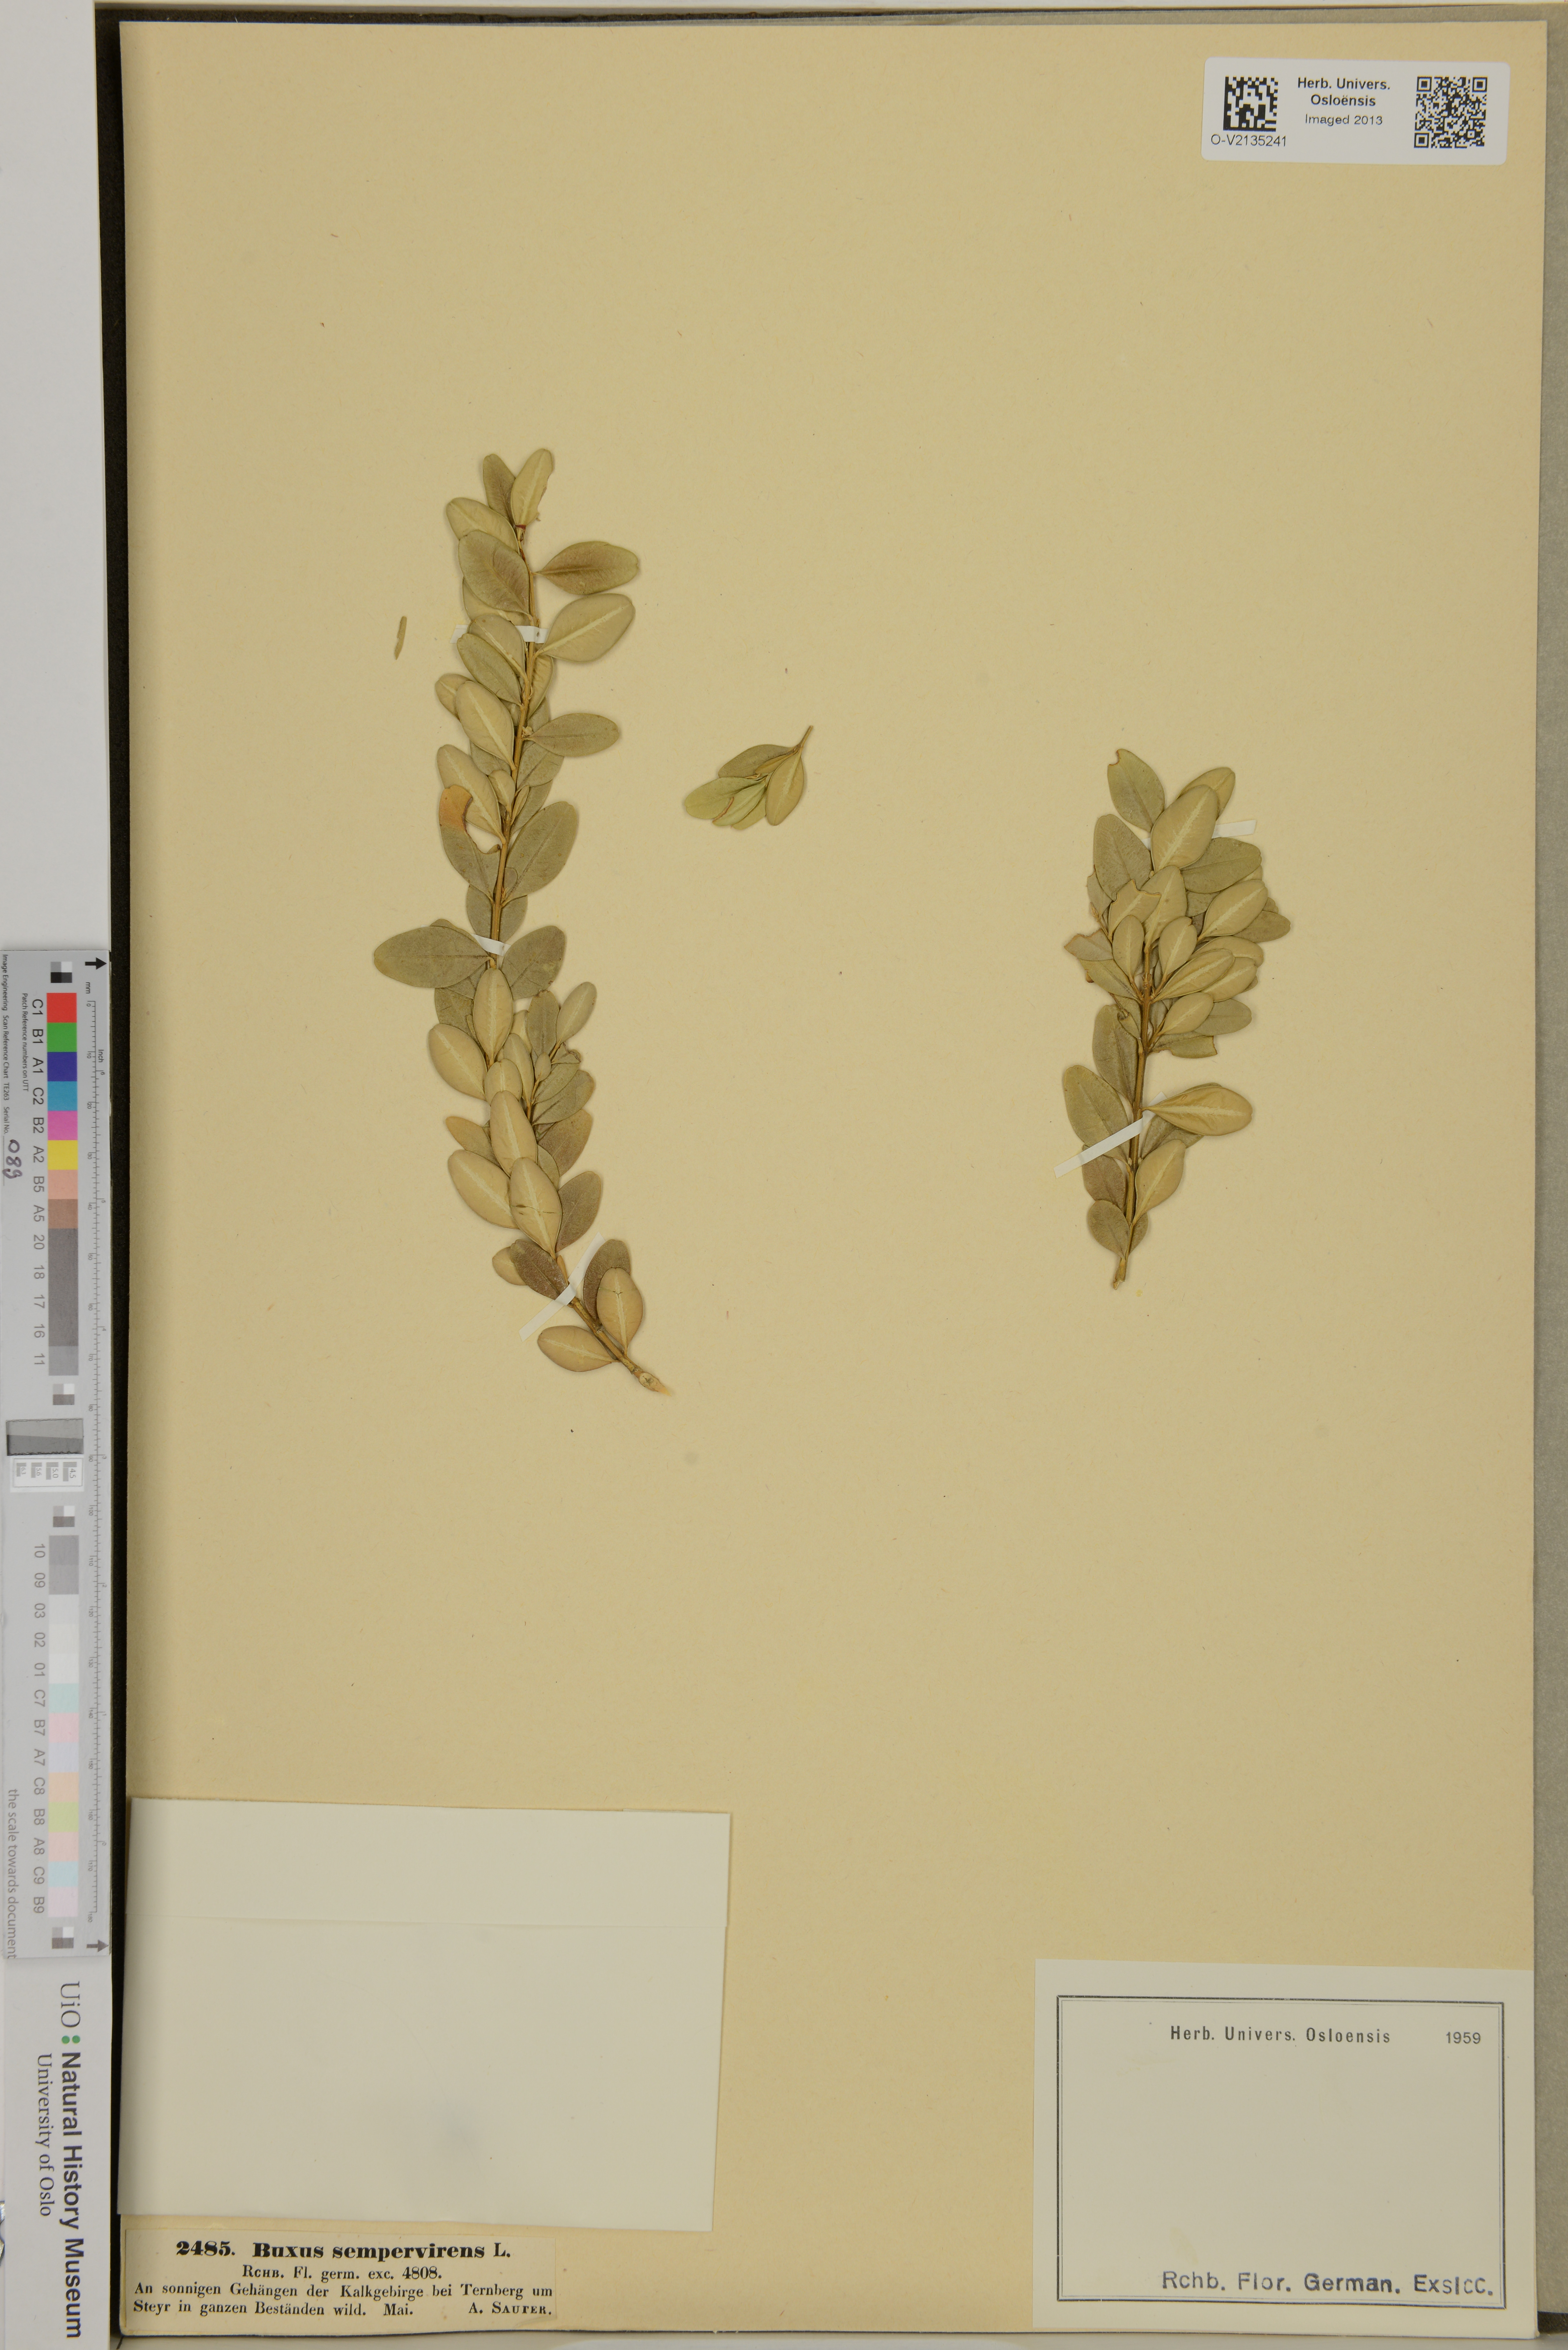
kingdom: Plantae
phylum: Tracheophyta
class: Magnoliopsida
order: Buxales
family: Buxaceae
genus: Buxus
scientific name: Buxus sempervirens
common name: Box
